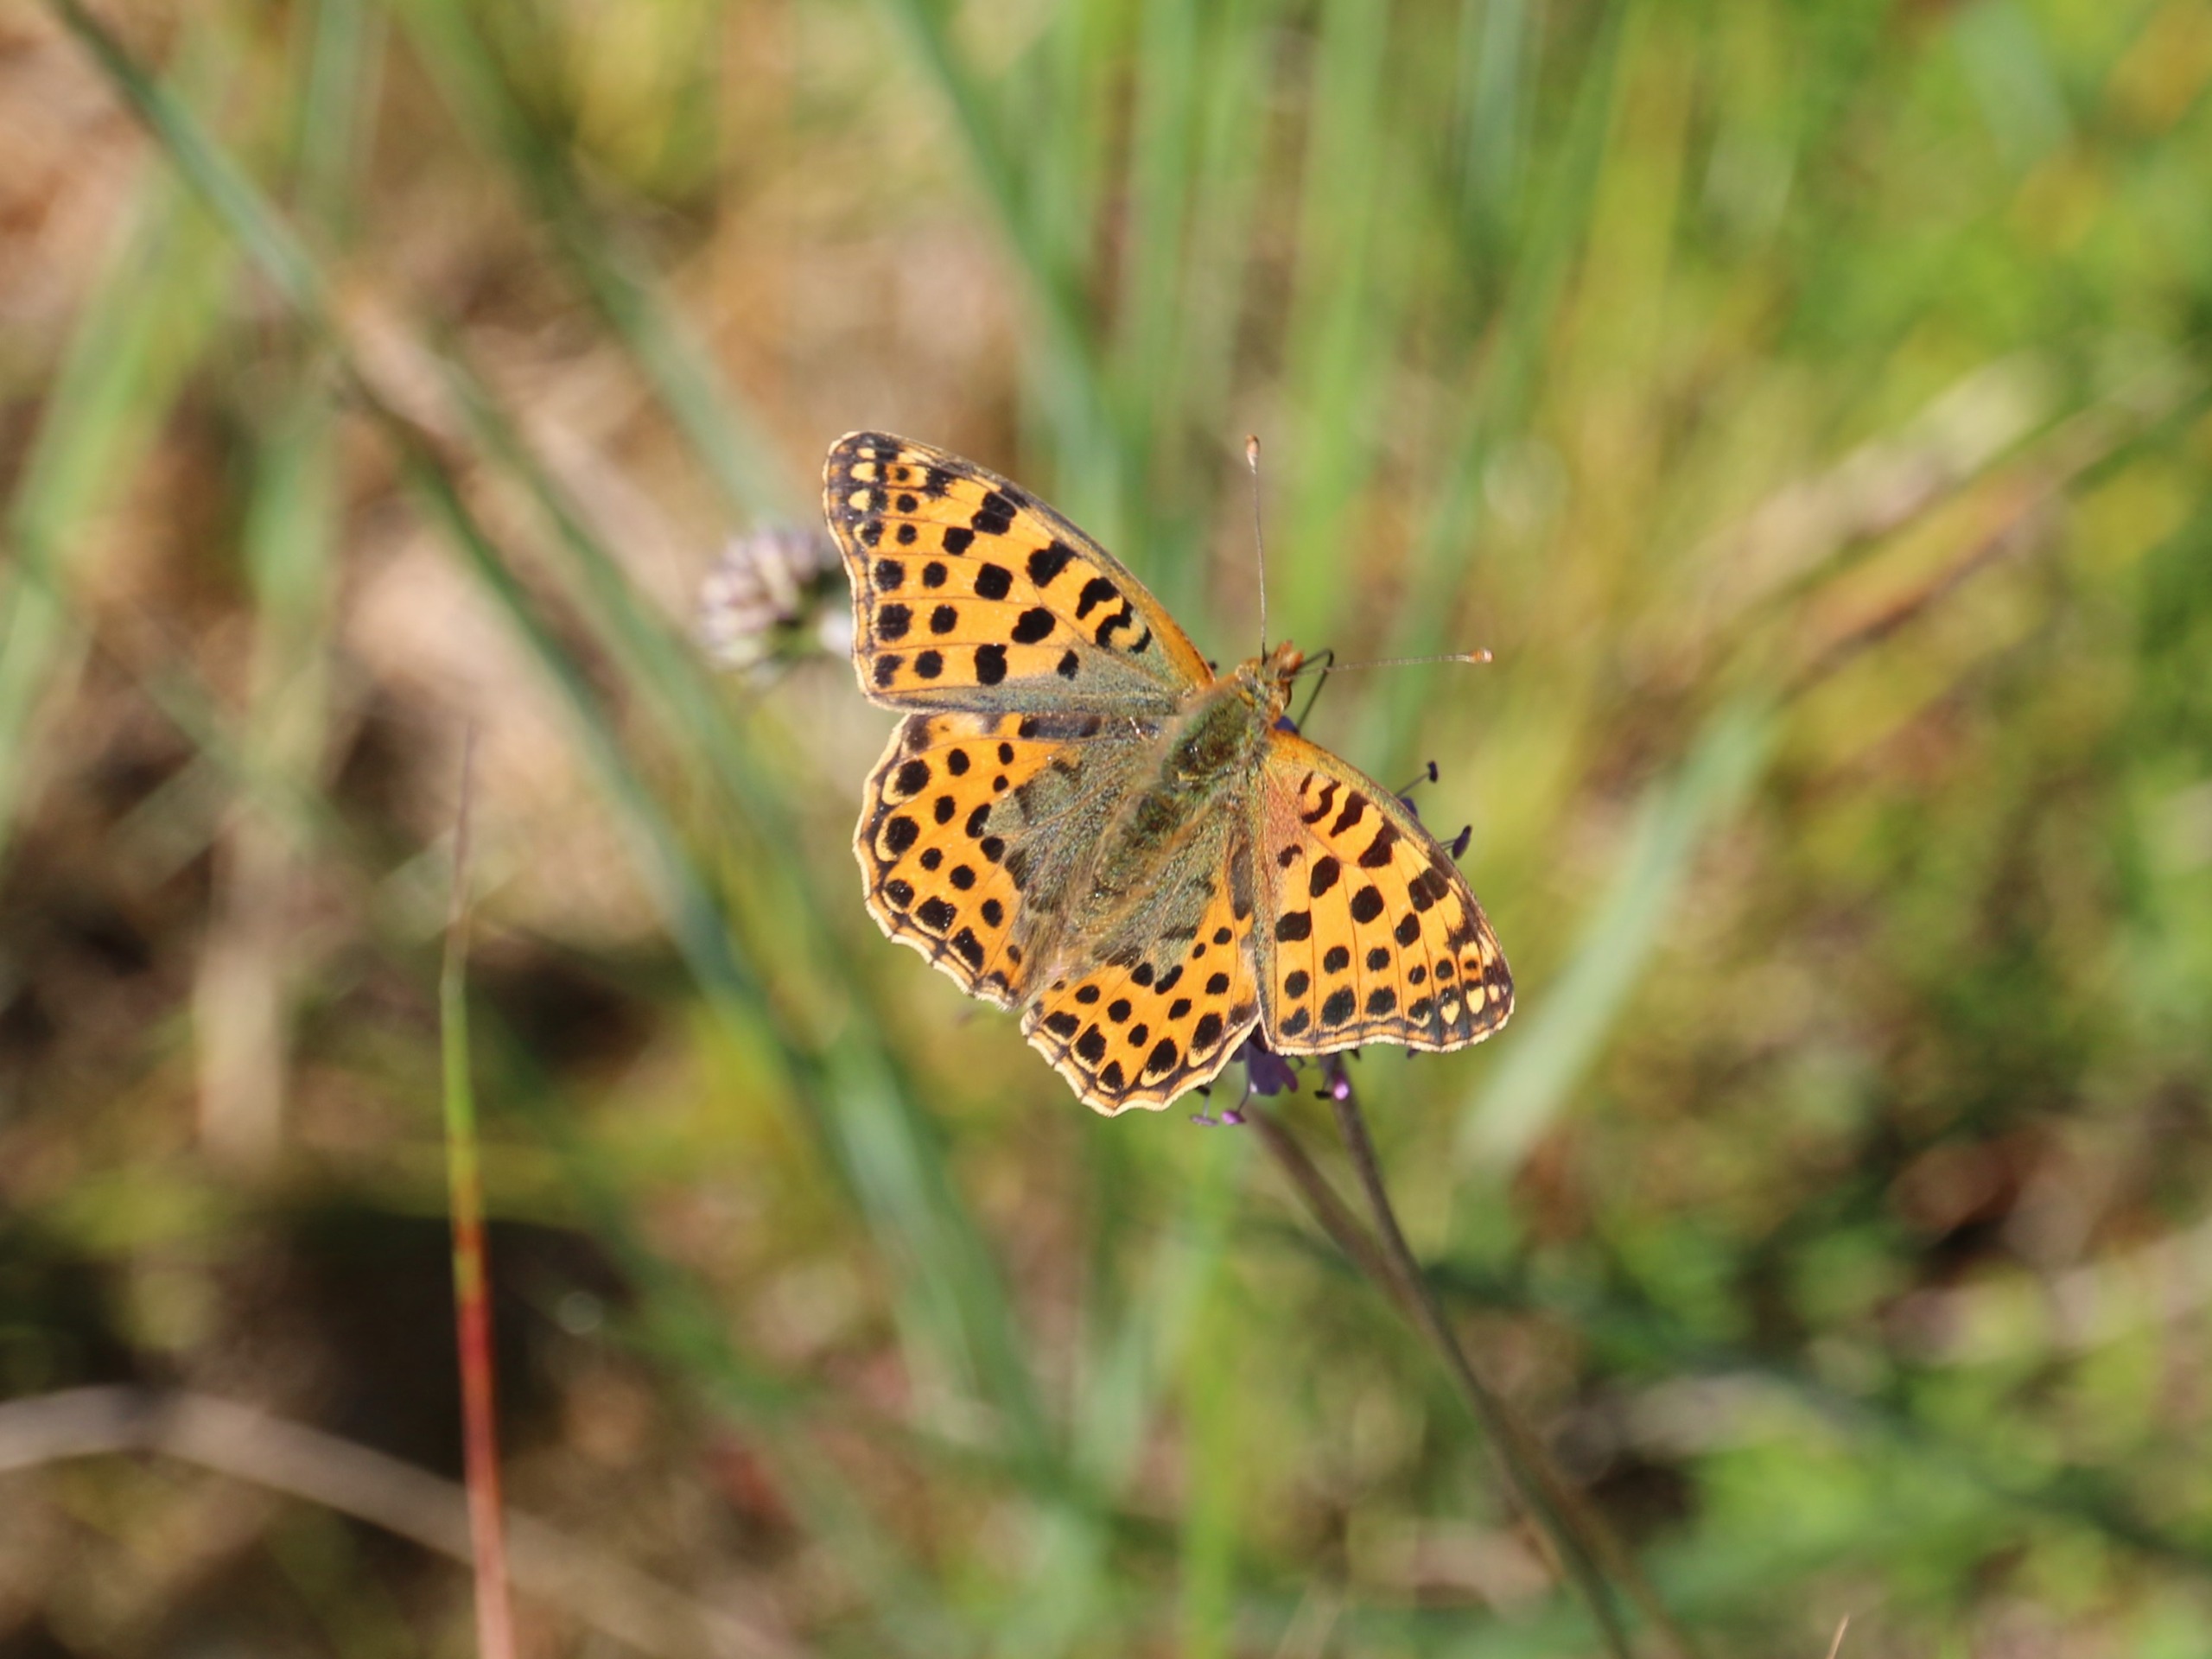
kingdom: Animalia
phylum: Arthropoda
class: Insecta
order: Lepidoptera
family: Nymphalidae
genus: Issoria
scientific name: Issoria lathonia
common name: Storplettet perlemorsommerfugl
